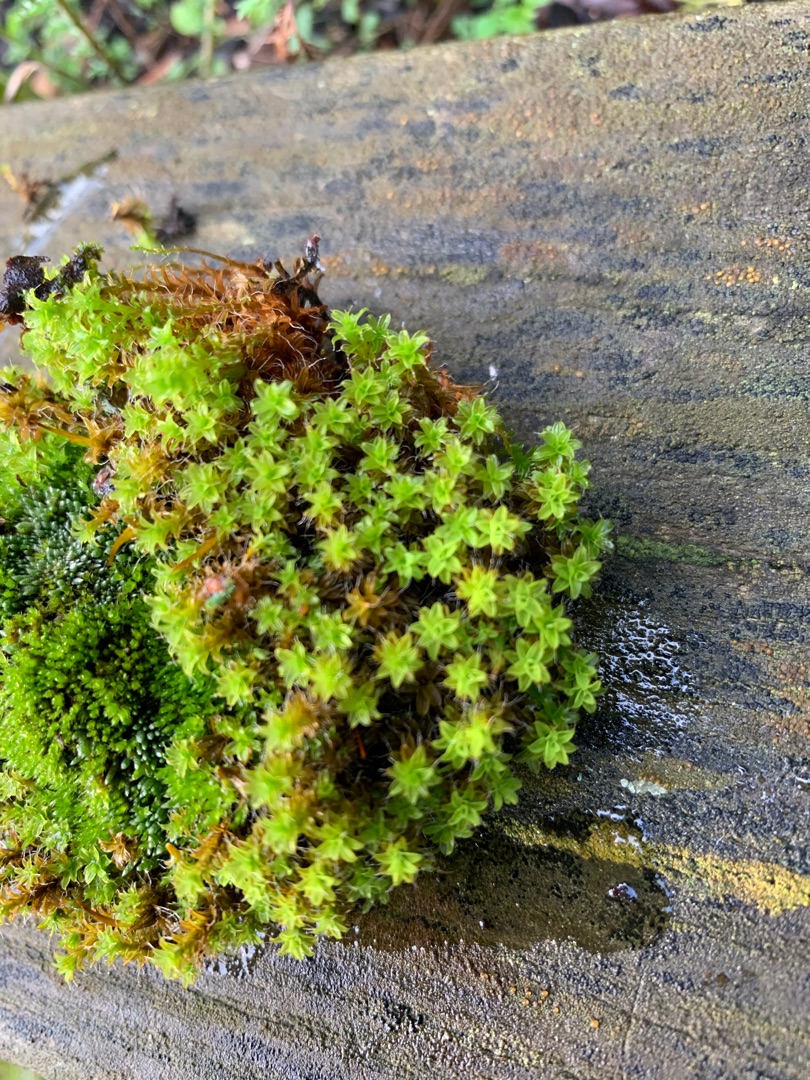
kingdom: Plantae
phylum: Bryophyta
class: Bryopsida
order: Pottiales
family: Pottiaceae
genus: Syntrichia
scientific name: Syntrichia ruralis
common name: Tag-hårstjerne
